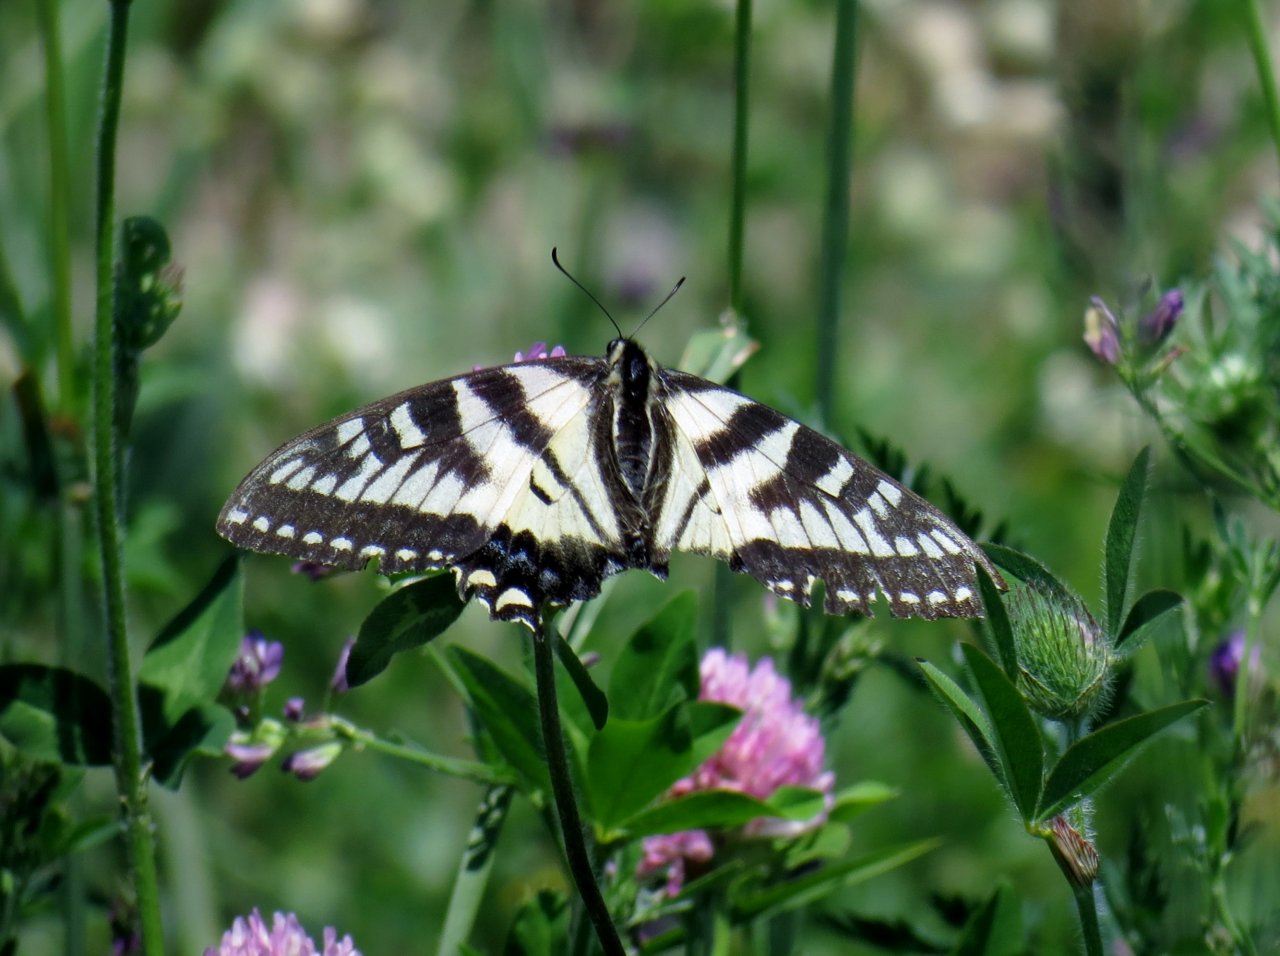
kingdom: Animalia
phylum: Arthropoda
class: Insecta
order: Lepidoptera
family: Papilionidae
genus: Pterourus
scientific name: Pterourus canadensis
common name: Canadian Tiger Swallowtail
